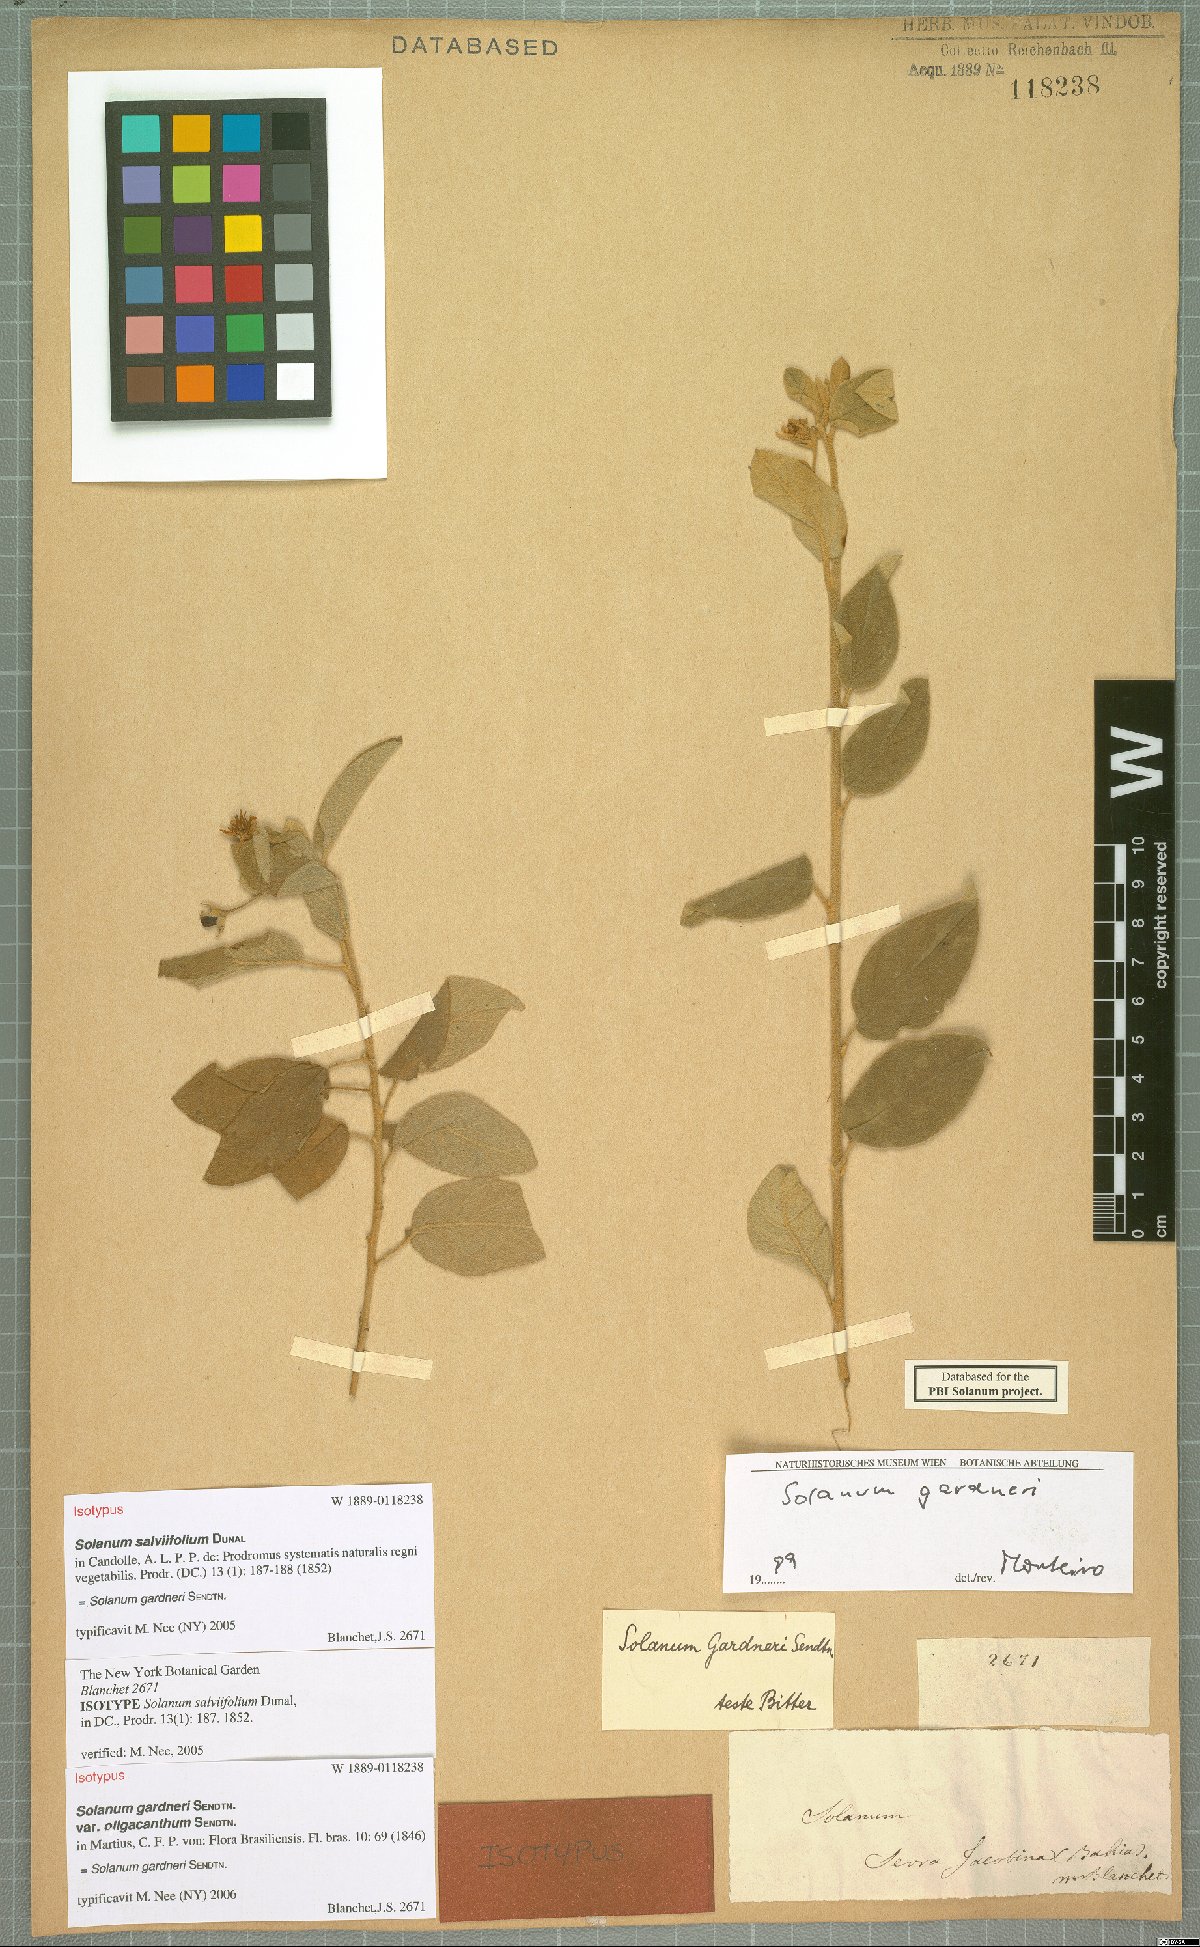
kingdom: Plantae
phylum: Tracheophyta
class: Magnoliopsida
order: Solanales
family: Solanaceae
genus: Solanum
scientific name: Solanum gardneri
